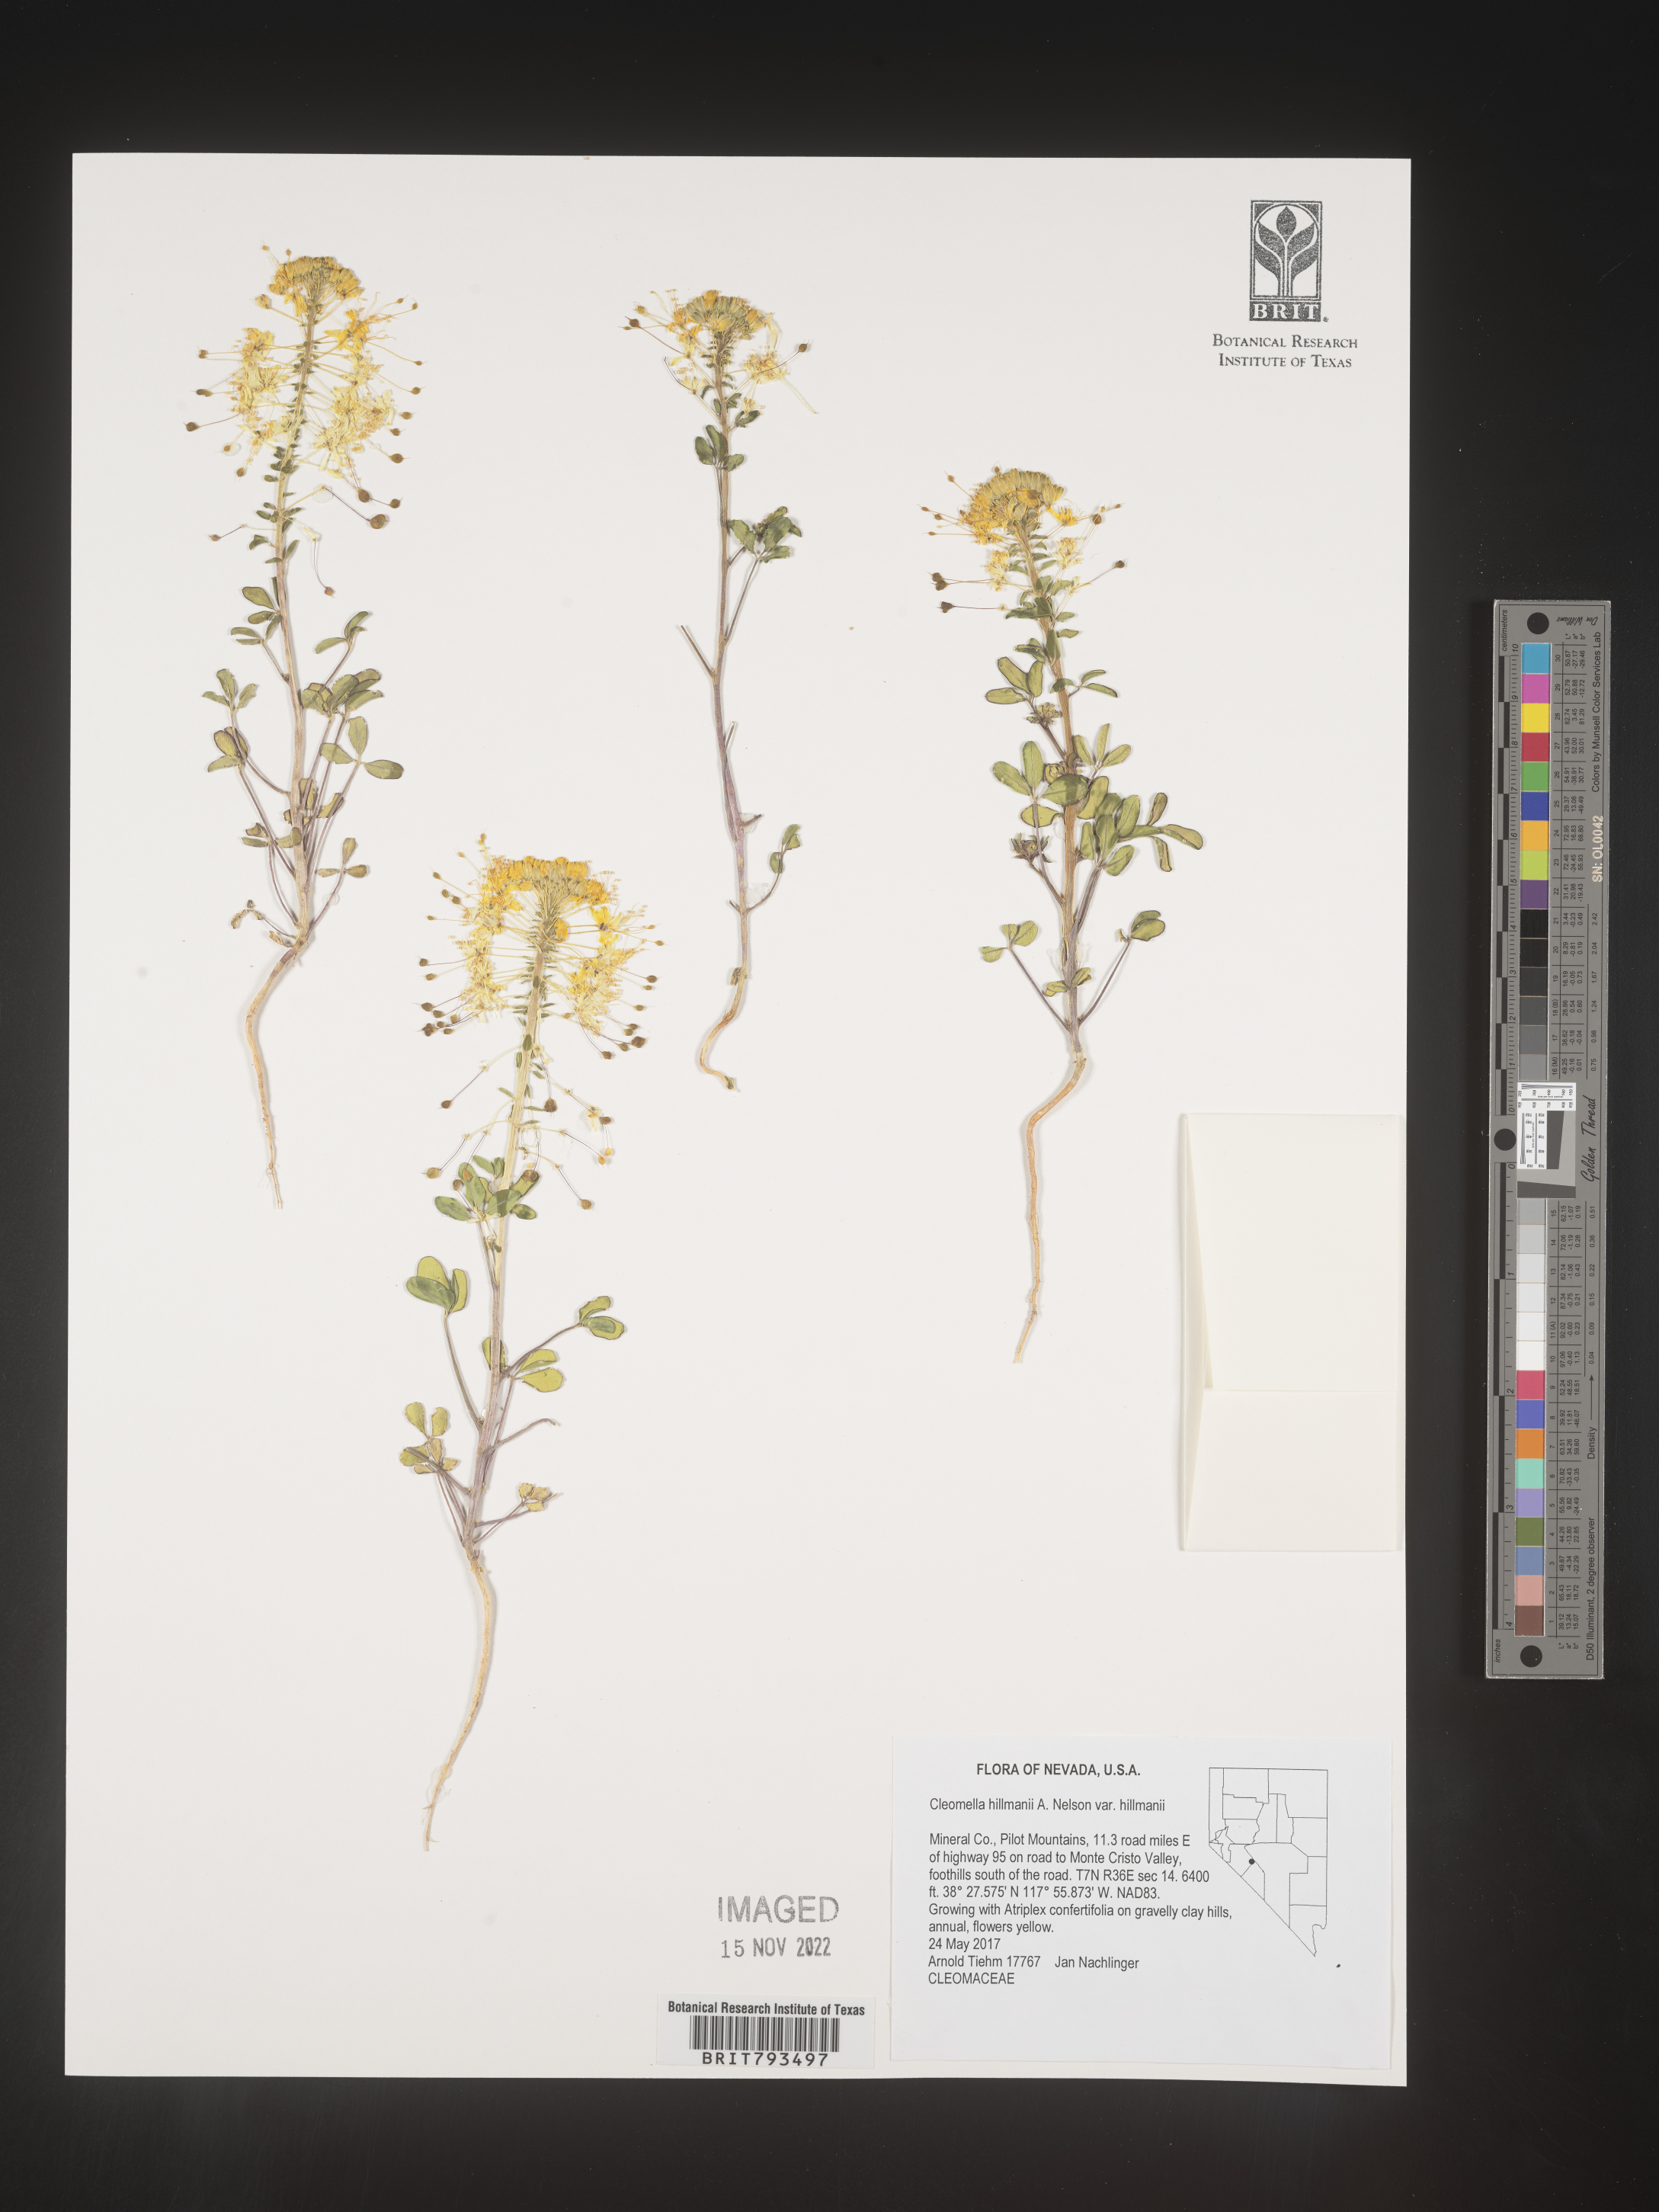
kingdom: Plantae
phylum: Tracheophyta
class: Magnoliopsida
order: Brassicales
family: Cleomaceae
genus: Cleomella
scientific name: Cleomella hillmanii
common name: Desert stinkweed
